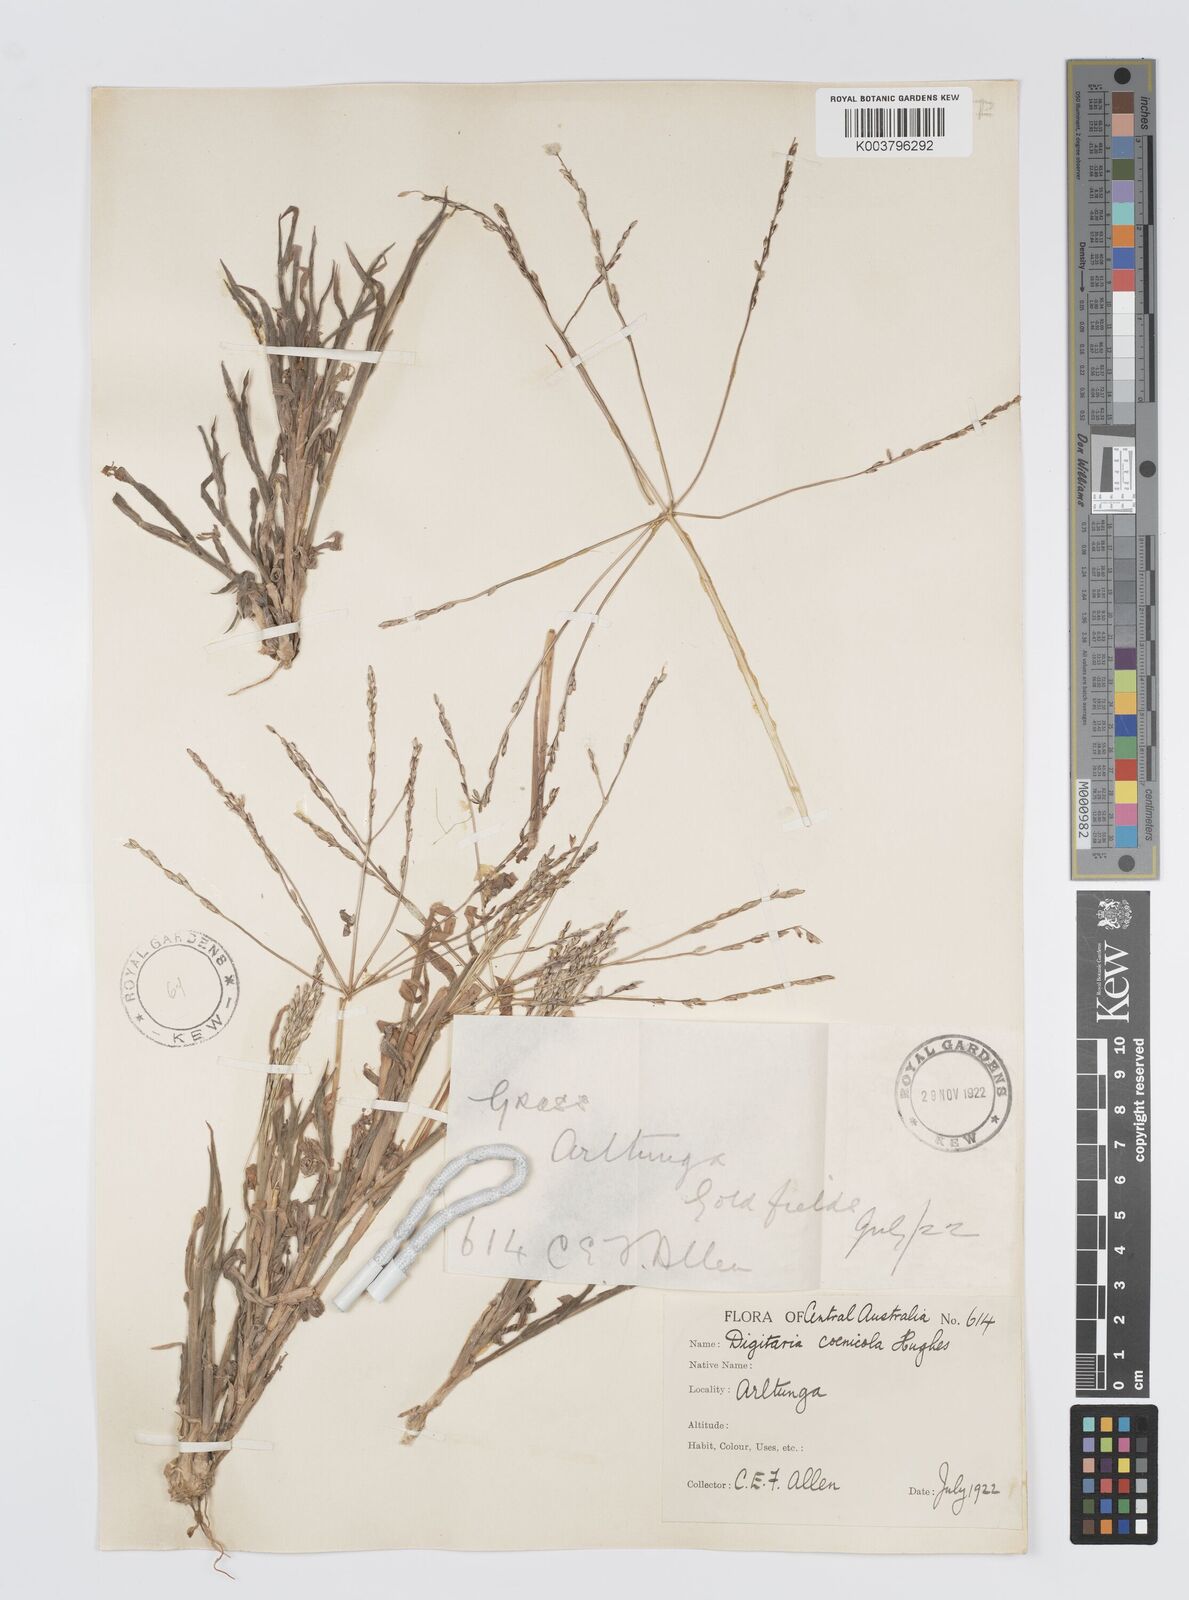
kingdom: Plantae
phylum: Tracheophyta
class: Liliopsida
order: Poales
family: Poaceae
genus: Digitaria
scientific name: Digitaria coenicola
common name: Kanta grass
